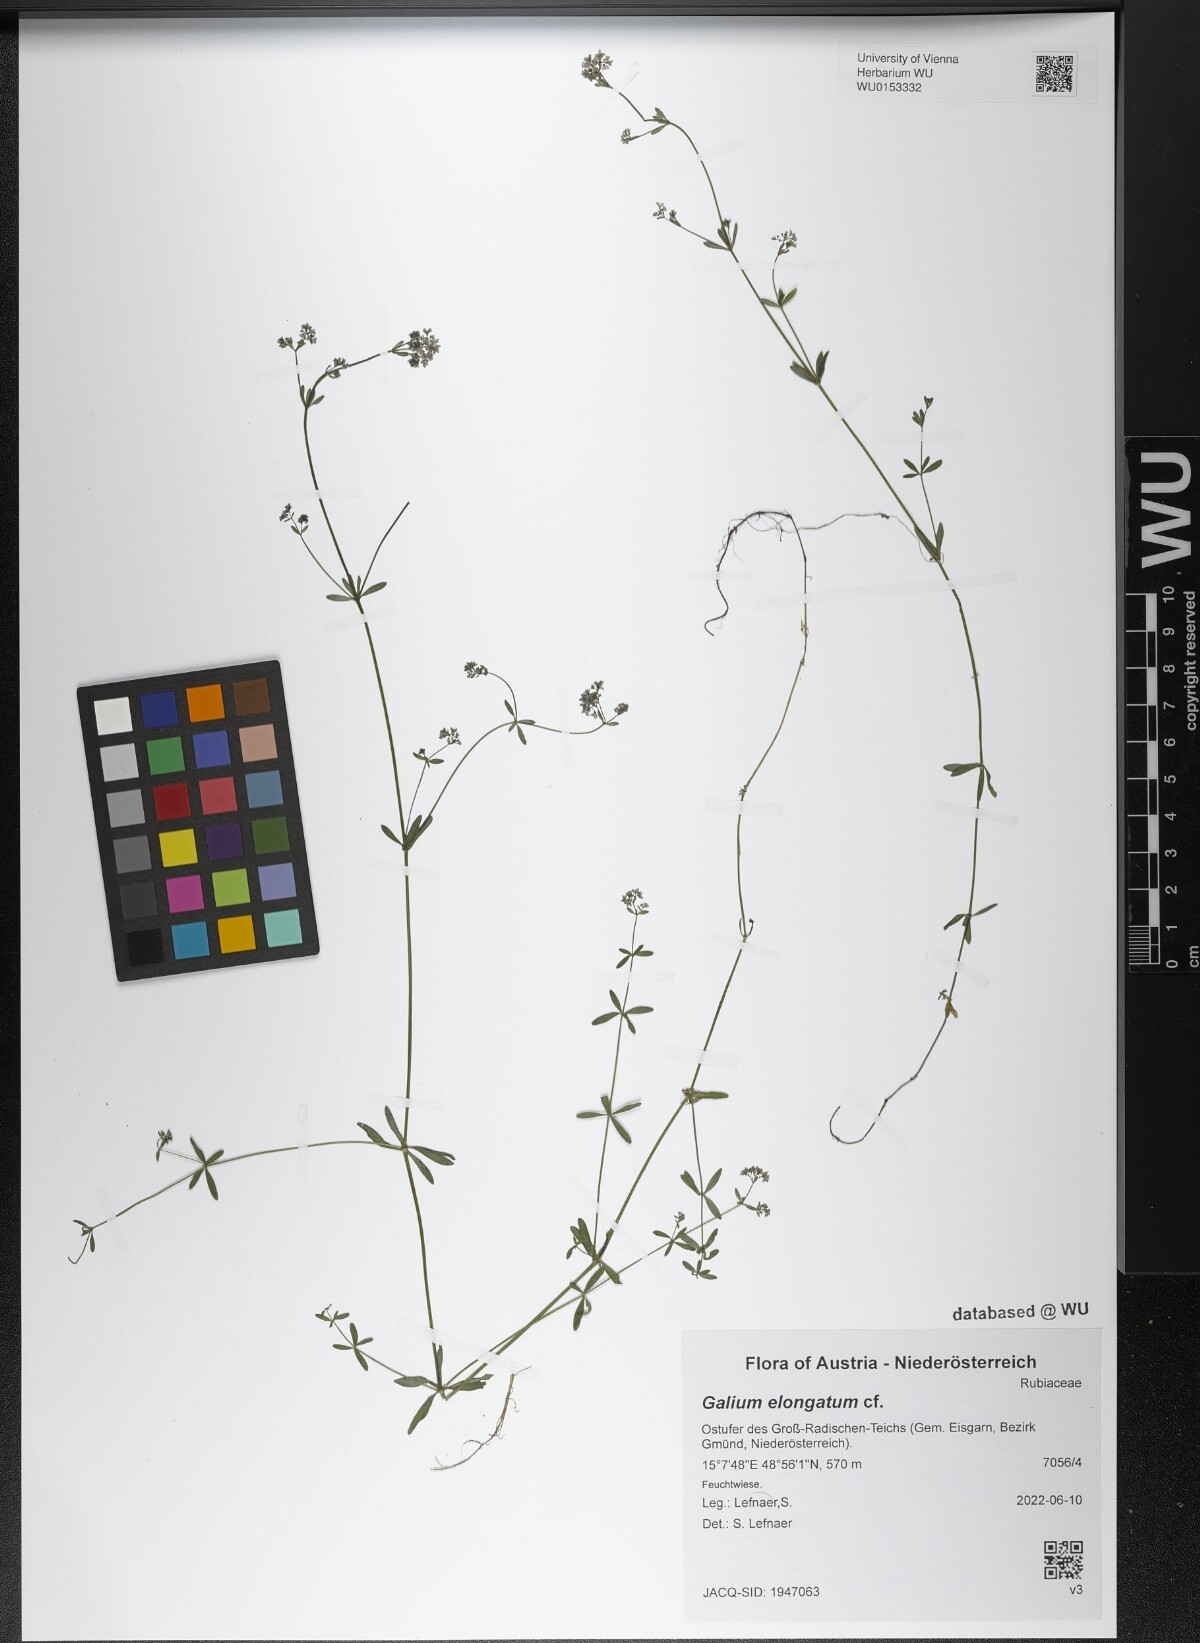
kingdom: Plantae
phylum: Tracheophyta
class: Magnoliopsida
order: Gentianales
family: Rubiaceae
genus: Galium
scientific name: Galium elongatum
